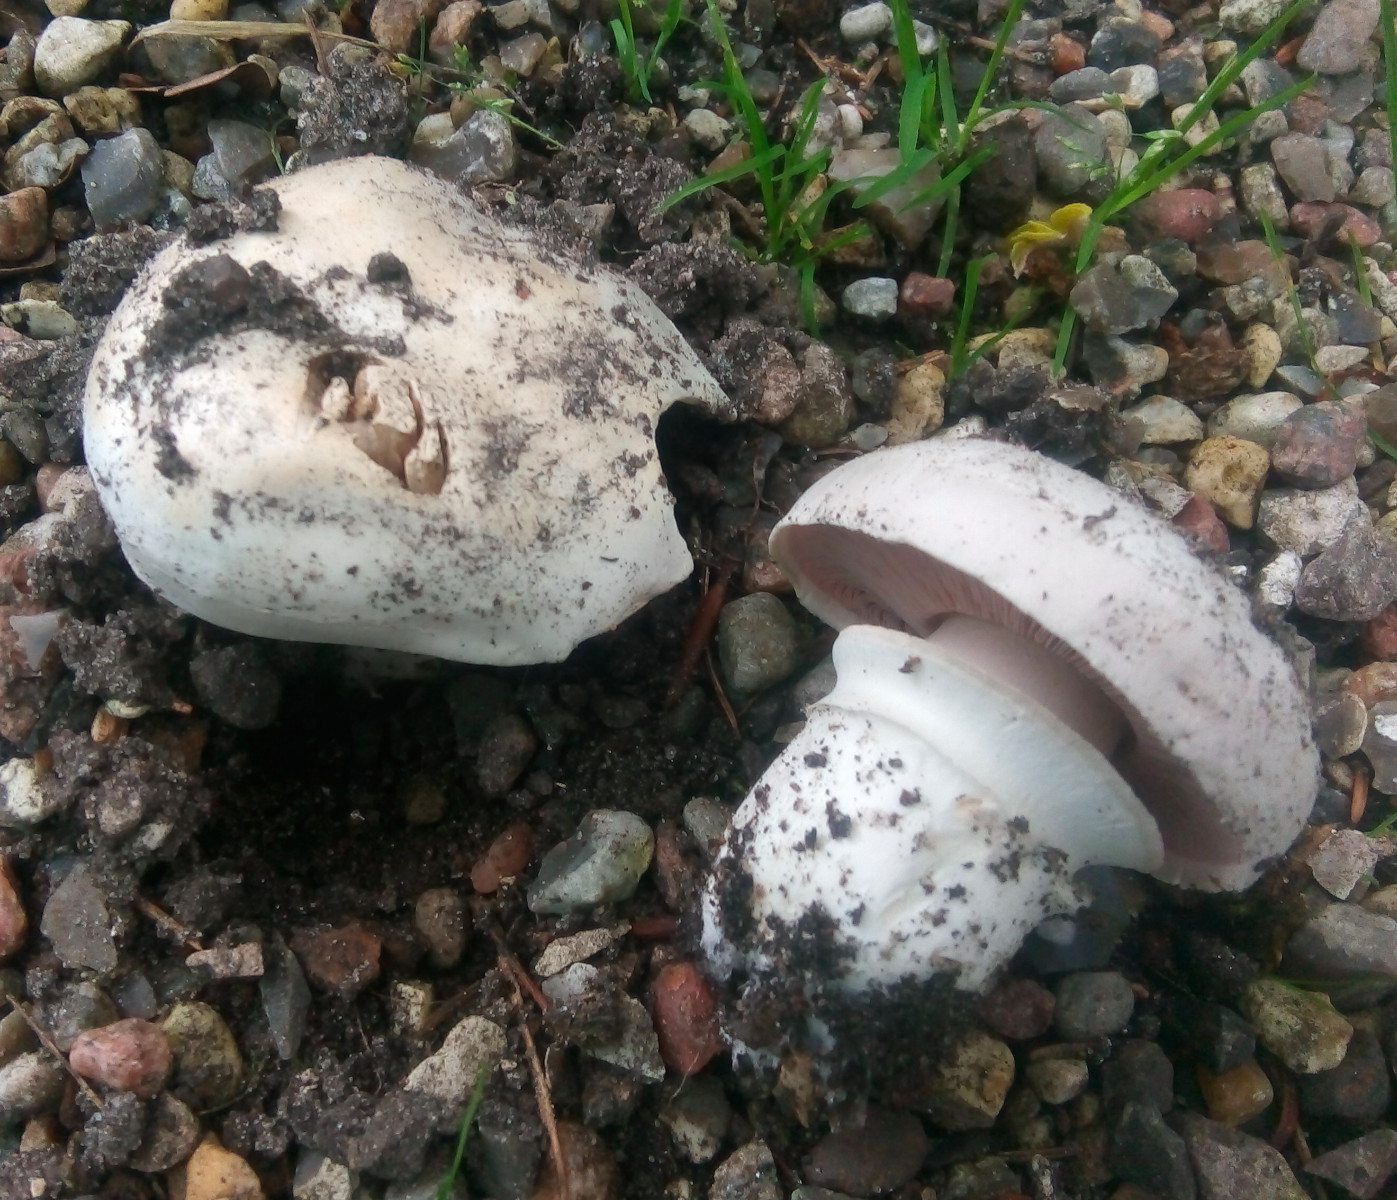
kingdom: Fungi
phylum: Basidiomycota
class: Agaricomycetes
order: Agaricales
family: Agaricaceae
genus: Agaricus
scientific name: Agaricus bitorquis
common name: vej-champignon
